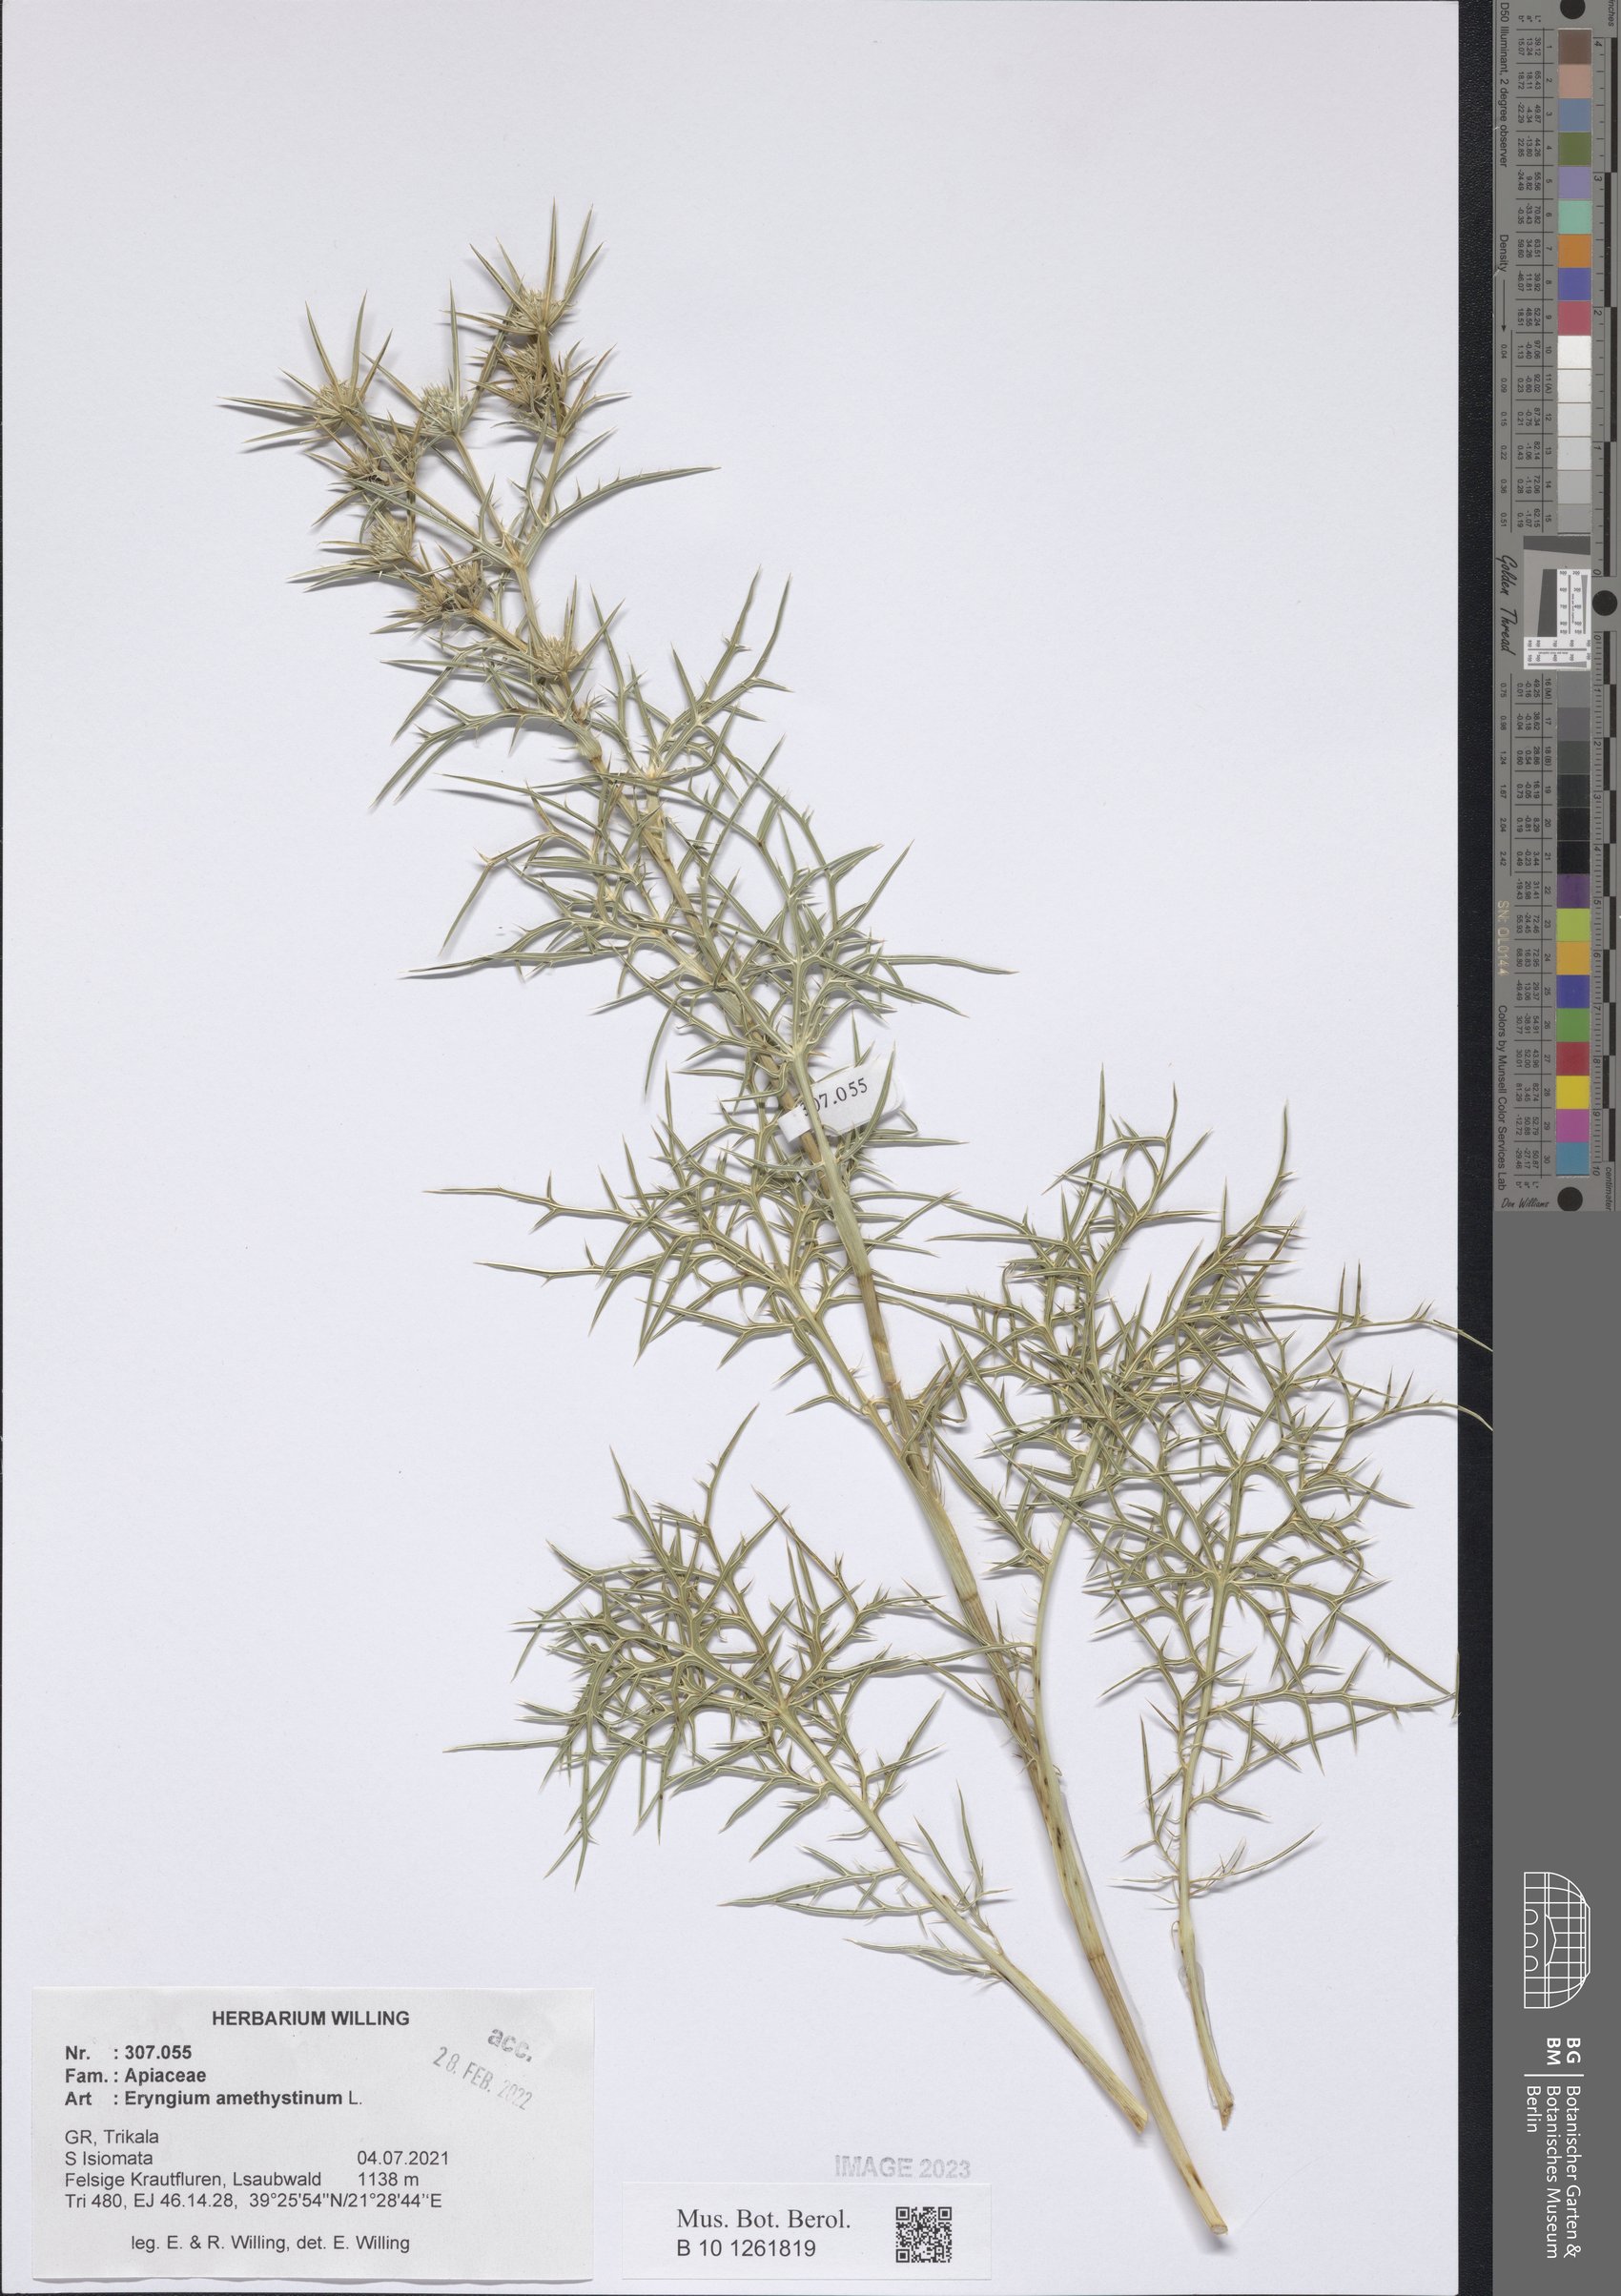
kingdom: Plantae
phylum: Tracheophyta
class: Magnoliopsida
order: Apiales
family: Apiaceae
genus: Eryngium
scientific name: Eryngium amethystinum
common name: Amethyst eryngo
